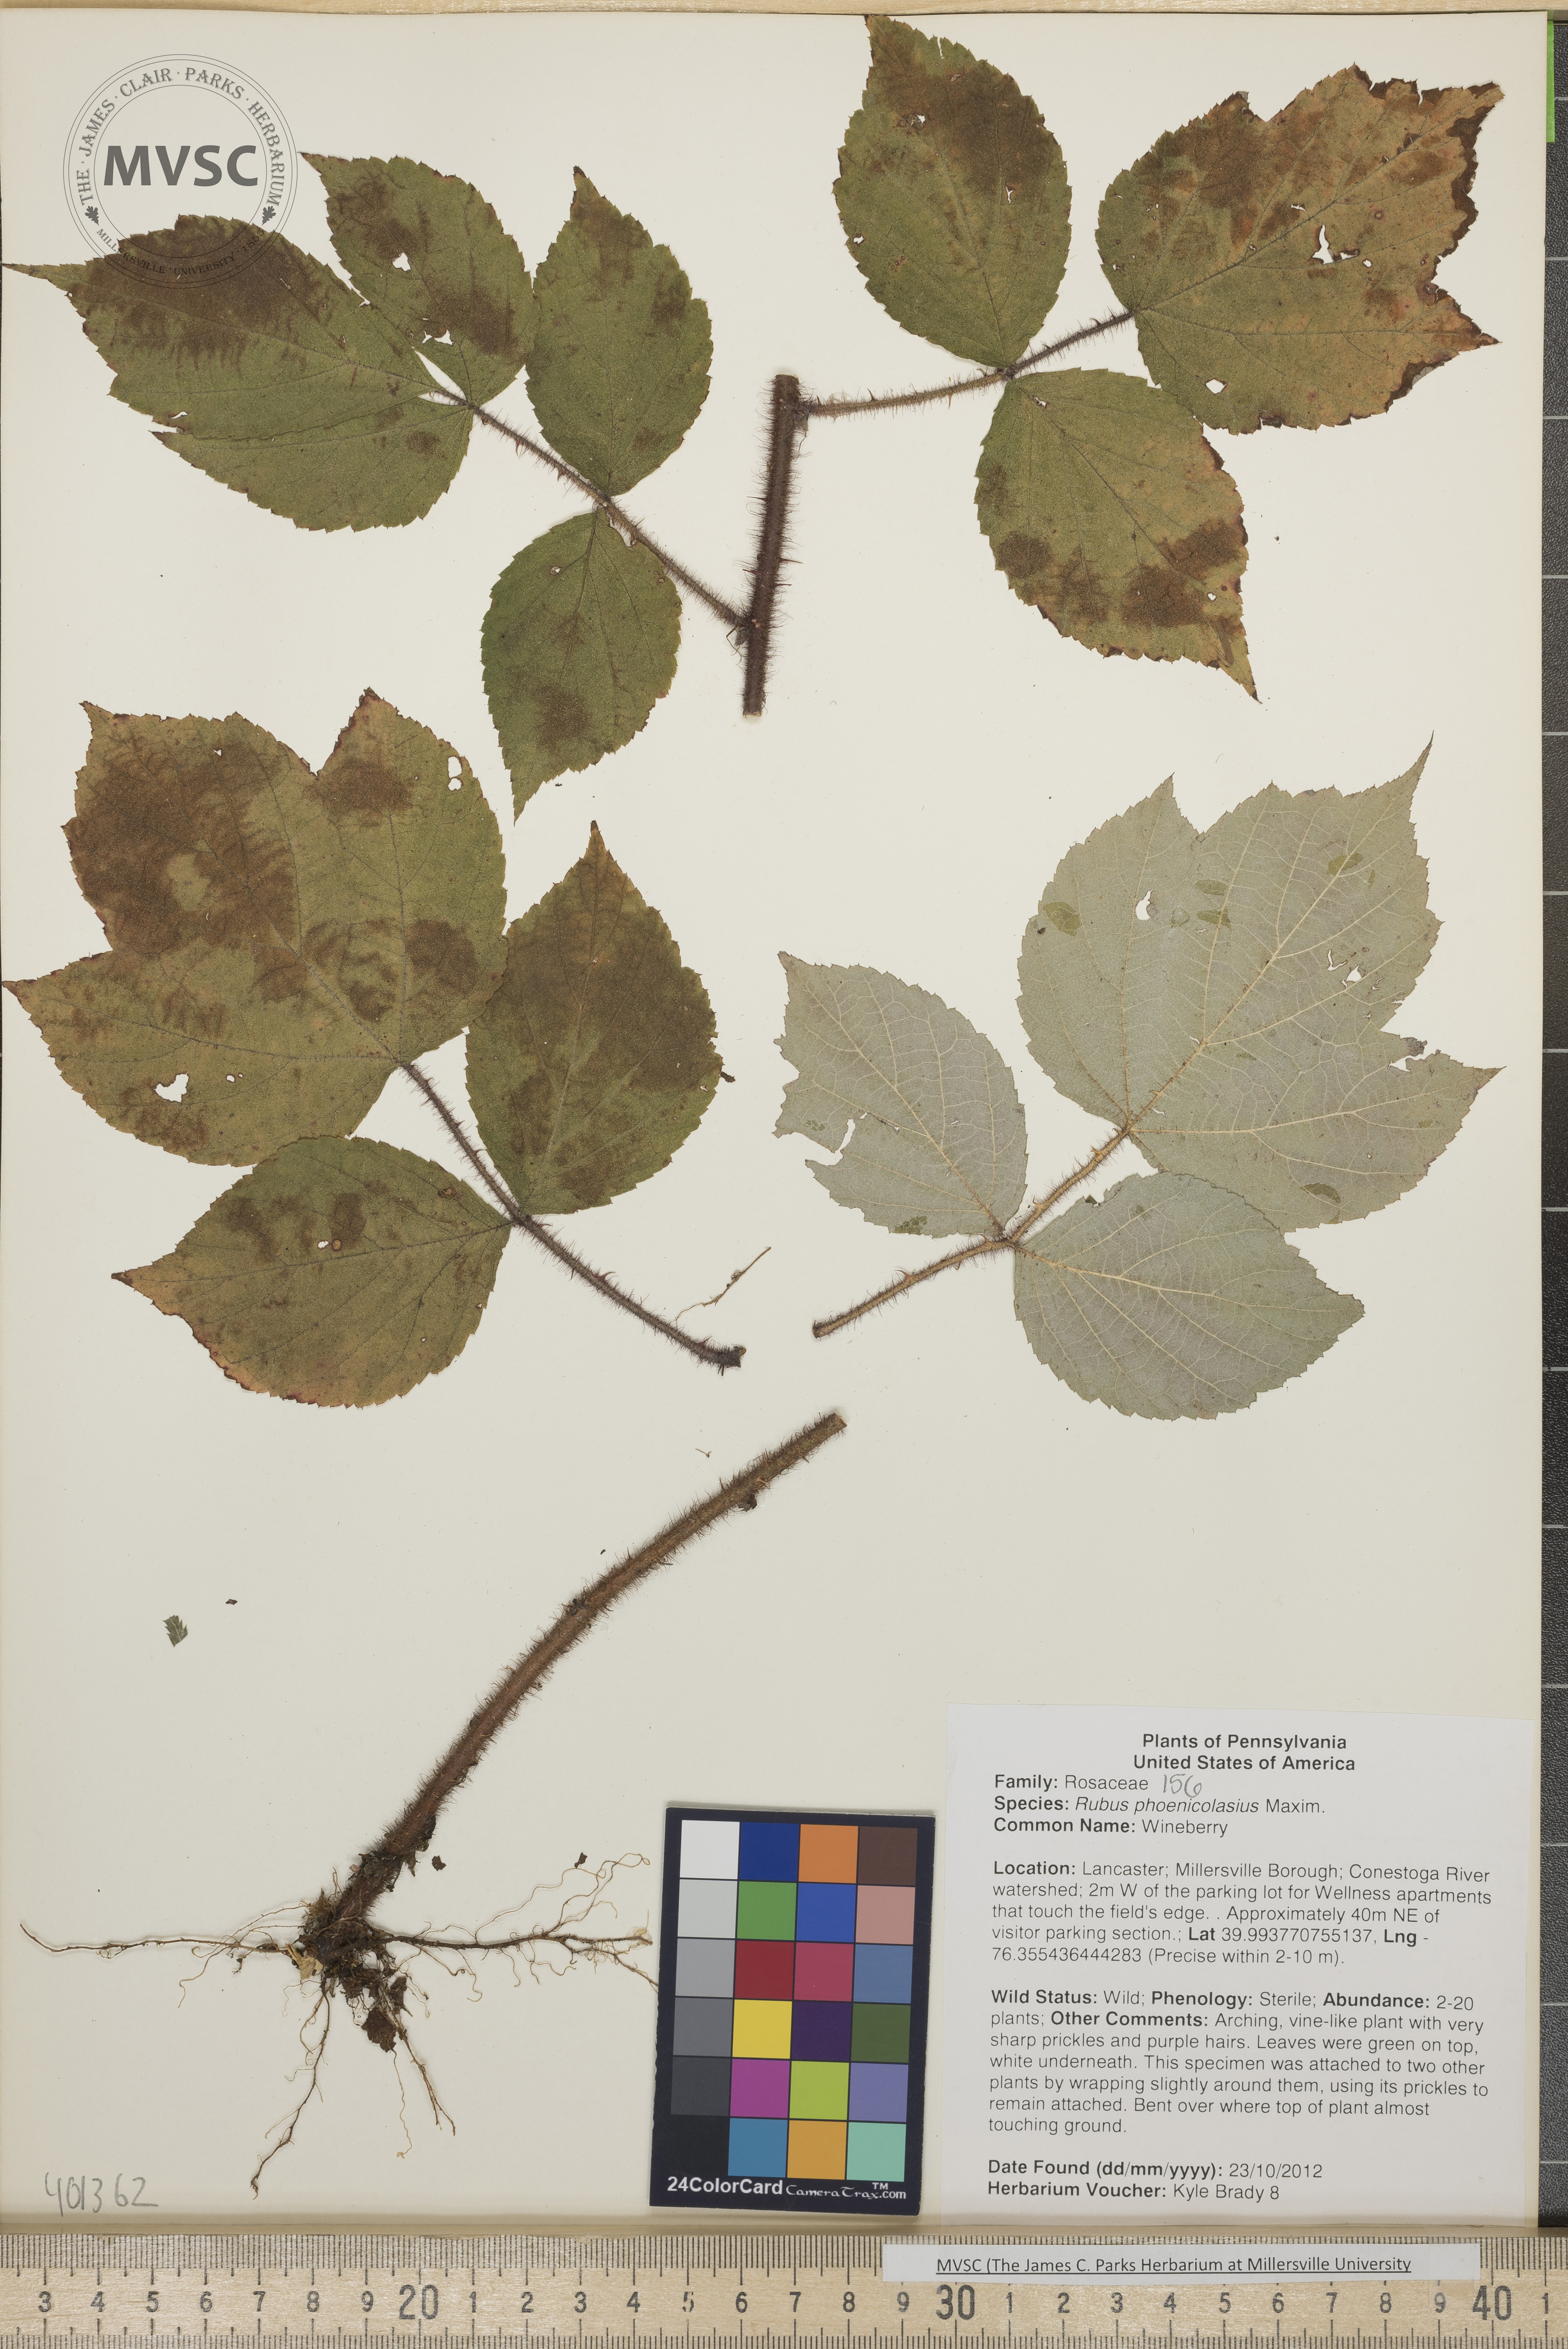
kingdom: Plantae
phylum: Tracheophyta
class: Magnoliopsida
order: Rosales
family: Rosaceae
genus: Rubus
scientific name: Rubus phoenicolasius
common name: Wineberry
